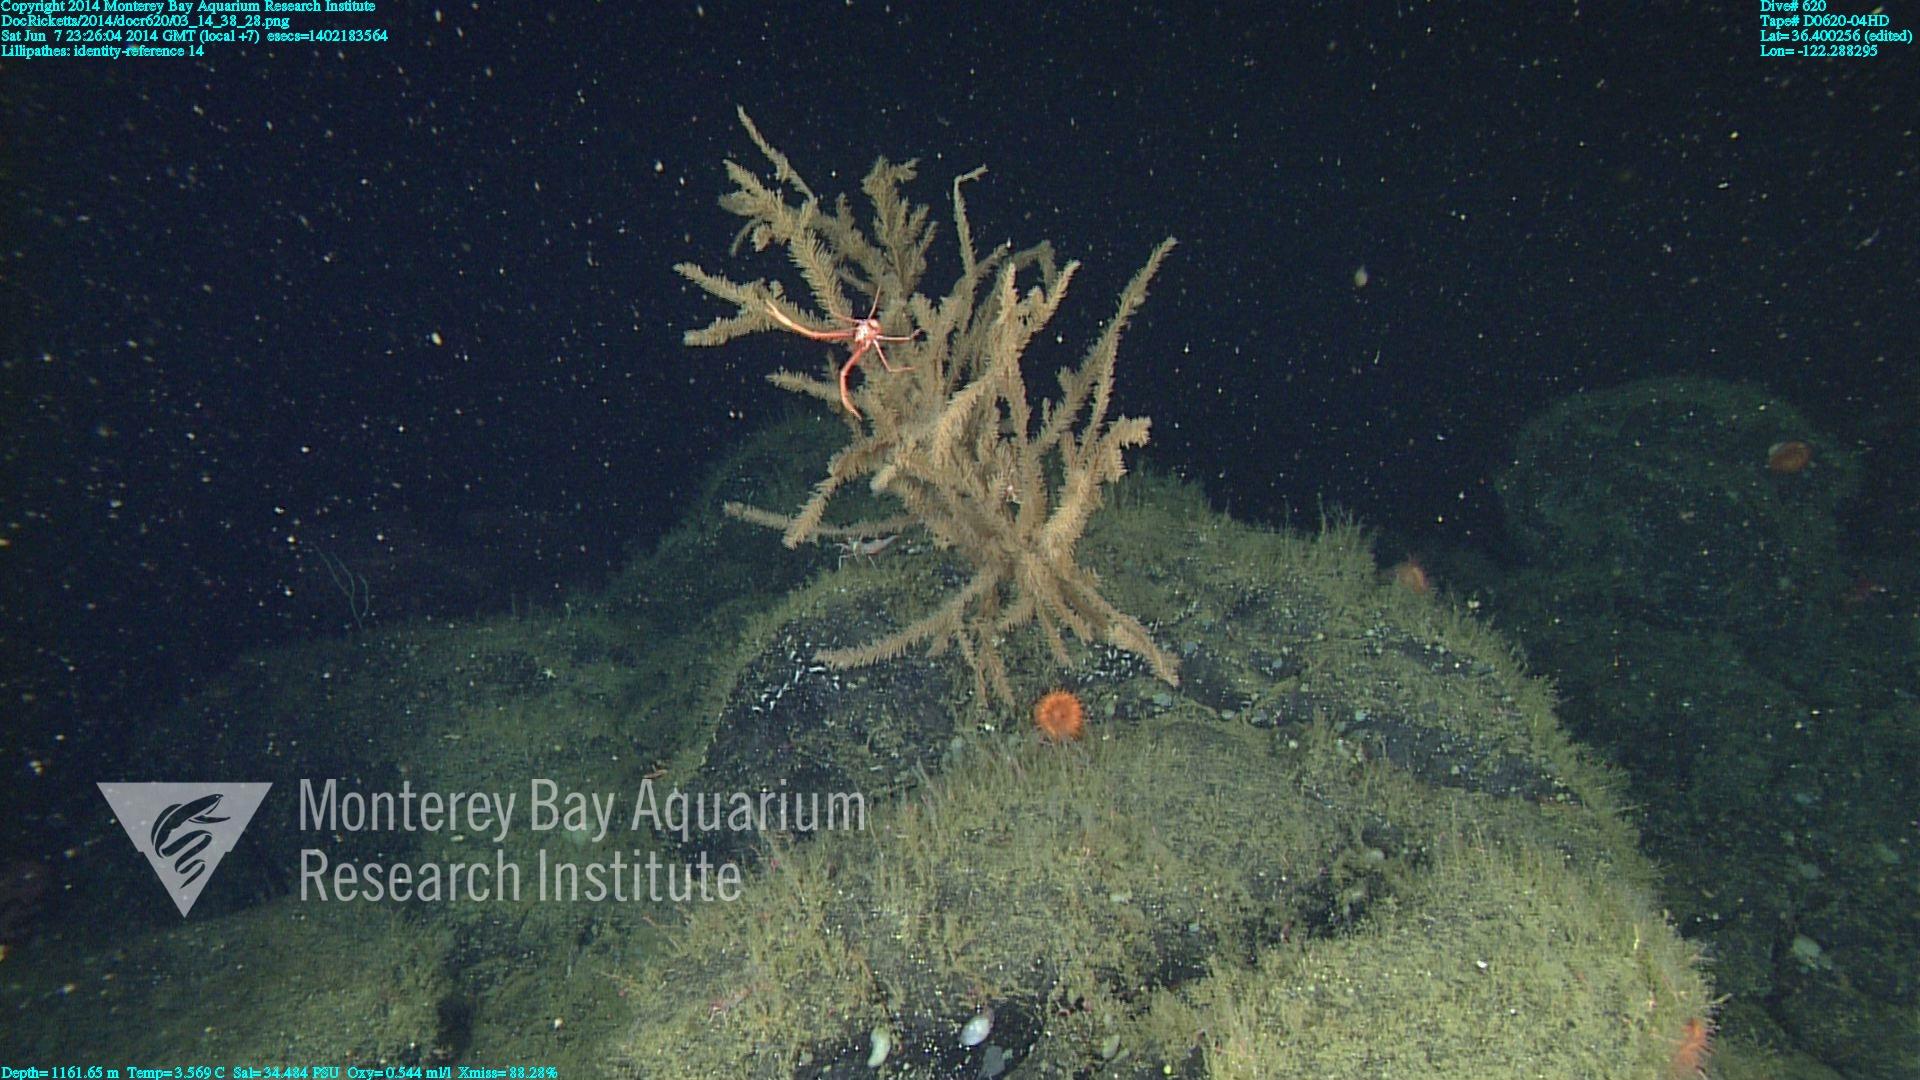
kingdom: Animalia
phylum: Cnidaria
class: Anthozoa
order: Antipatharia
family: Schizopathidae
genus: Lillipathes
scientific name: Lillipathes
